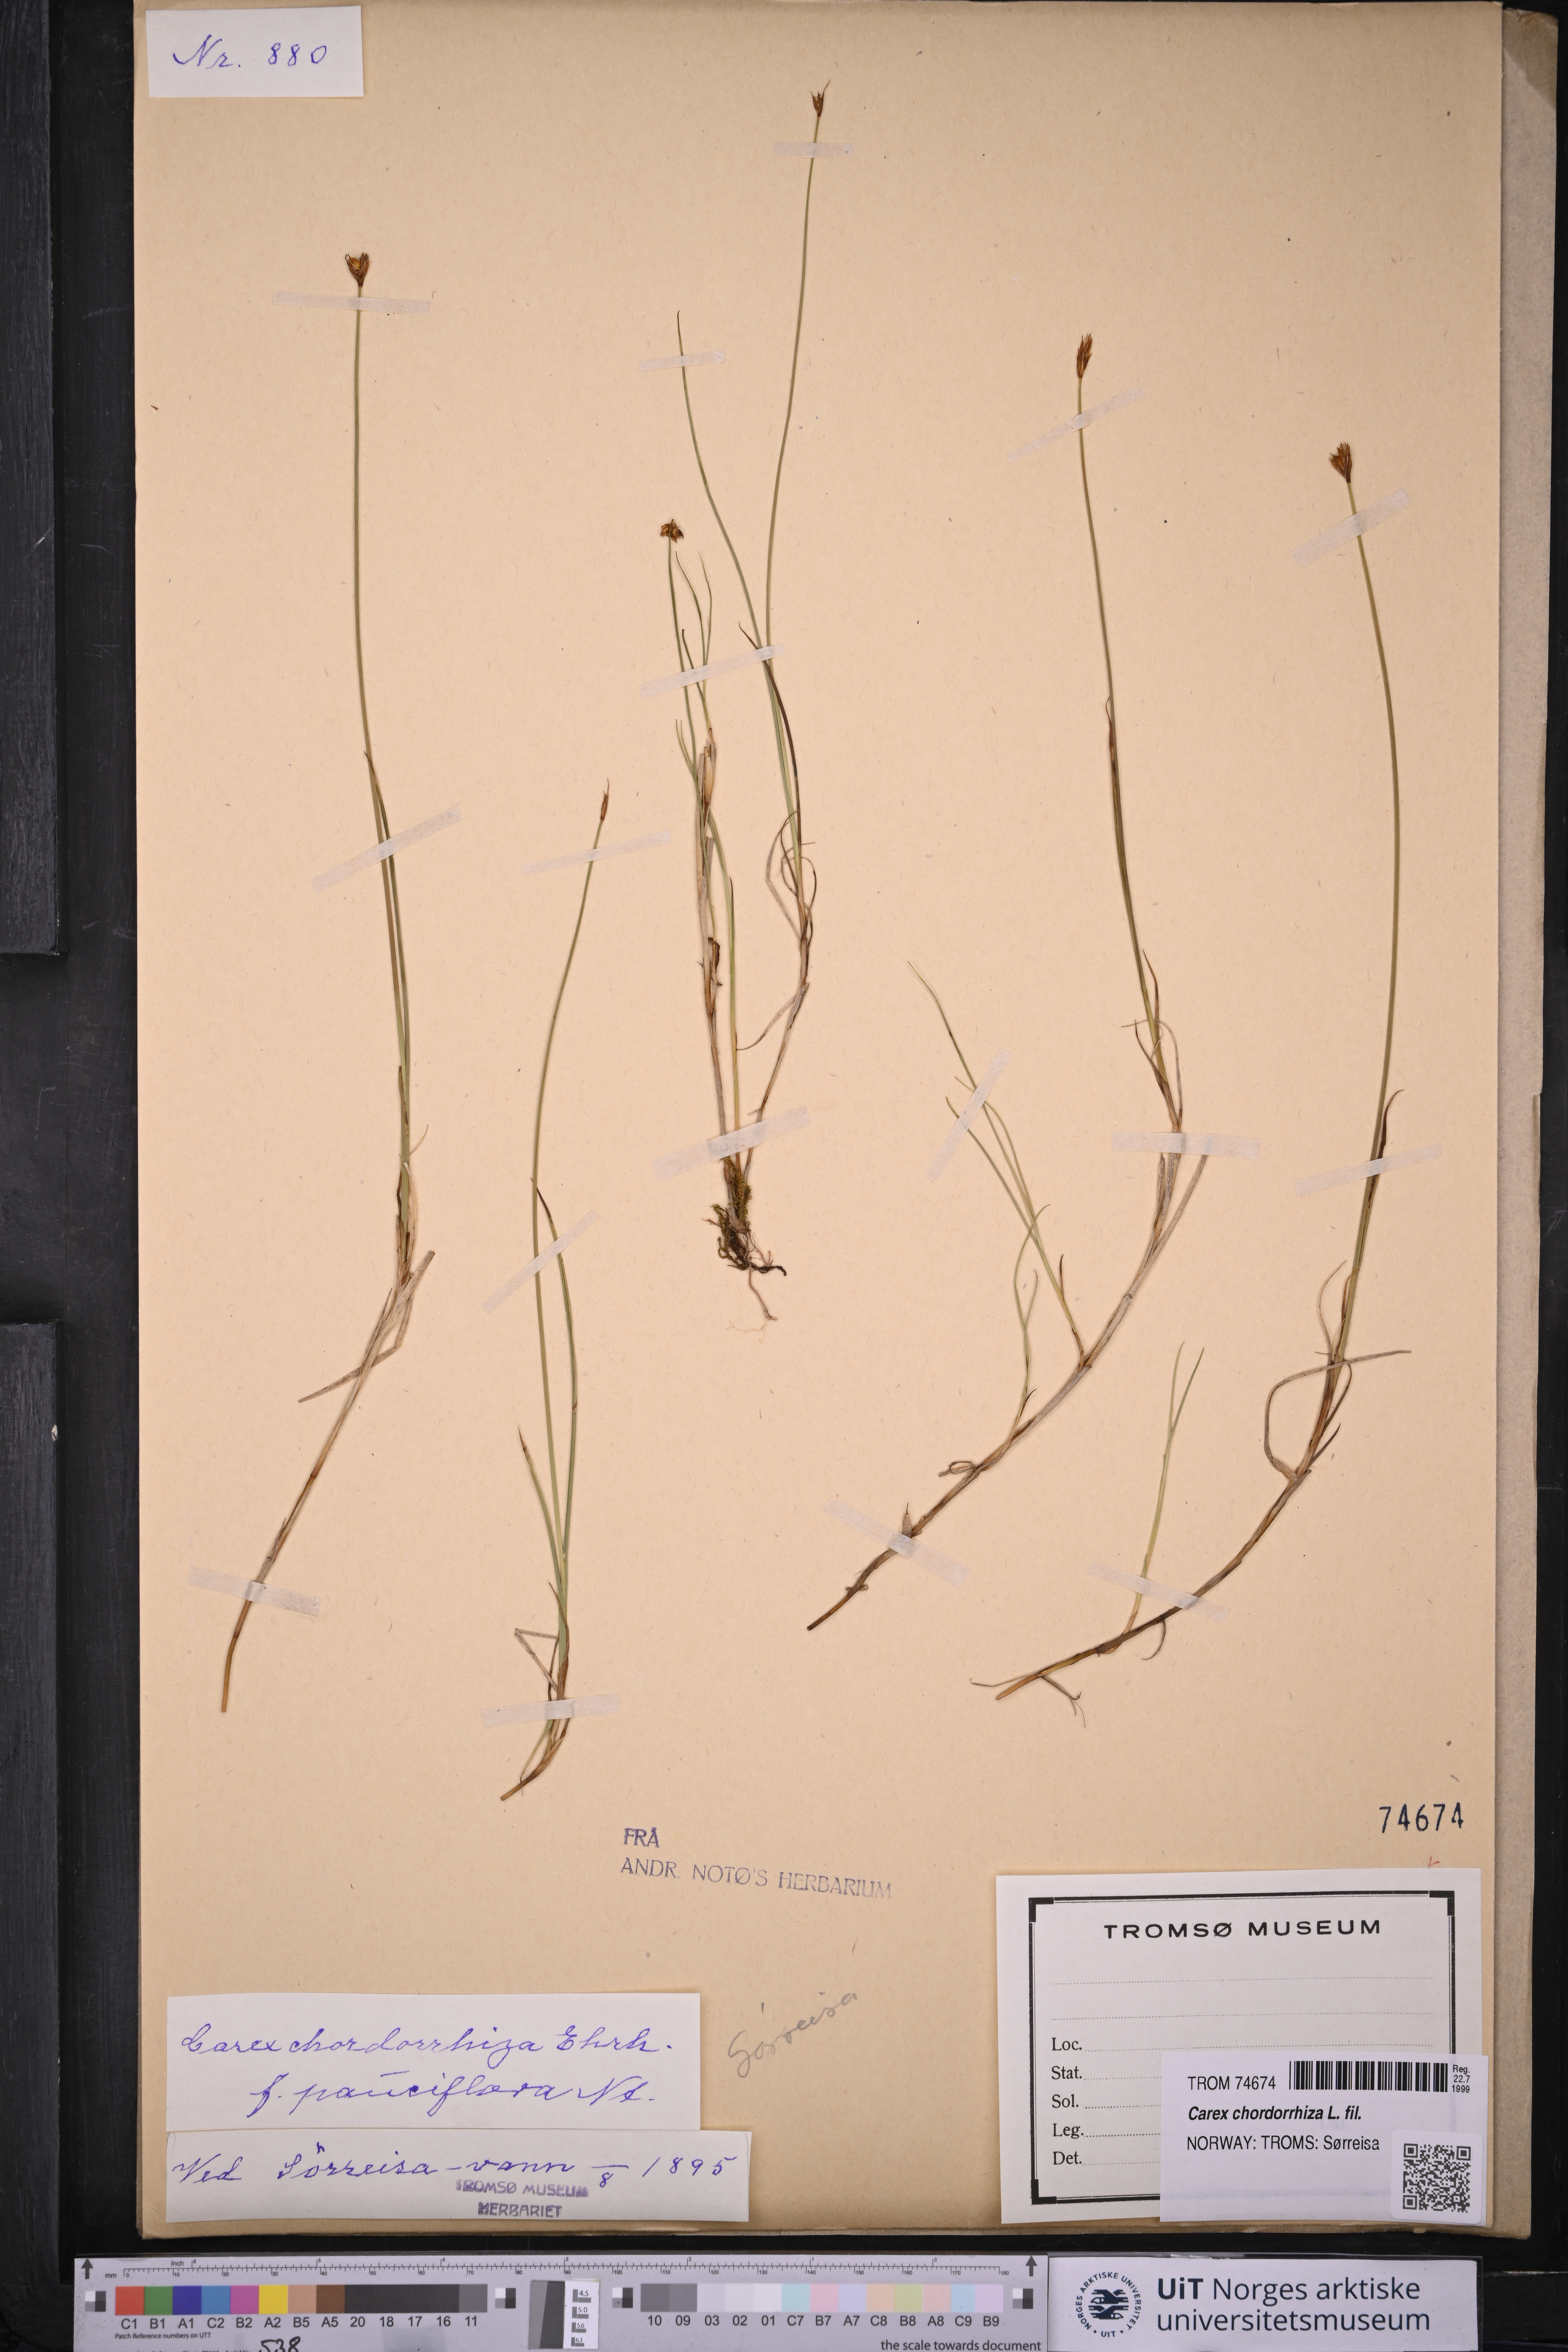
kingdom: Plantae
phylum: Tracheophyta
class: Liliopsida
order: Poales
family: Cyperaceae
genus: Carex
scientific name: Carex chordorrhiza
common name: String sedge
